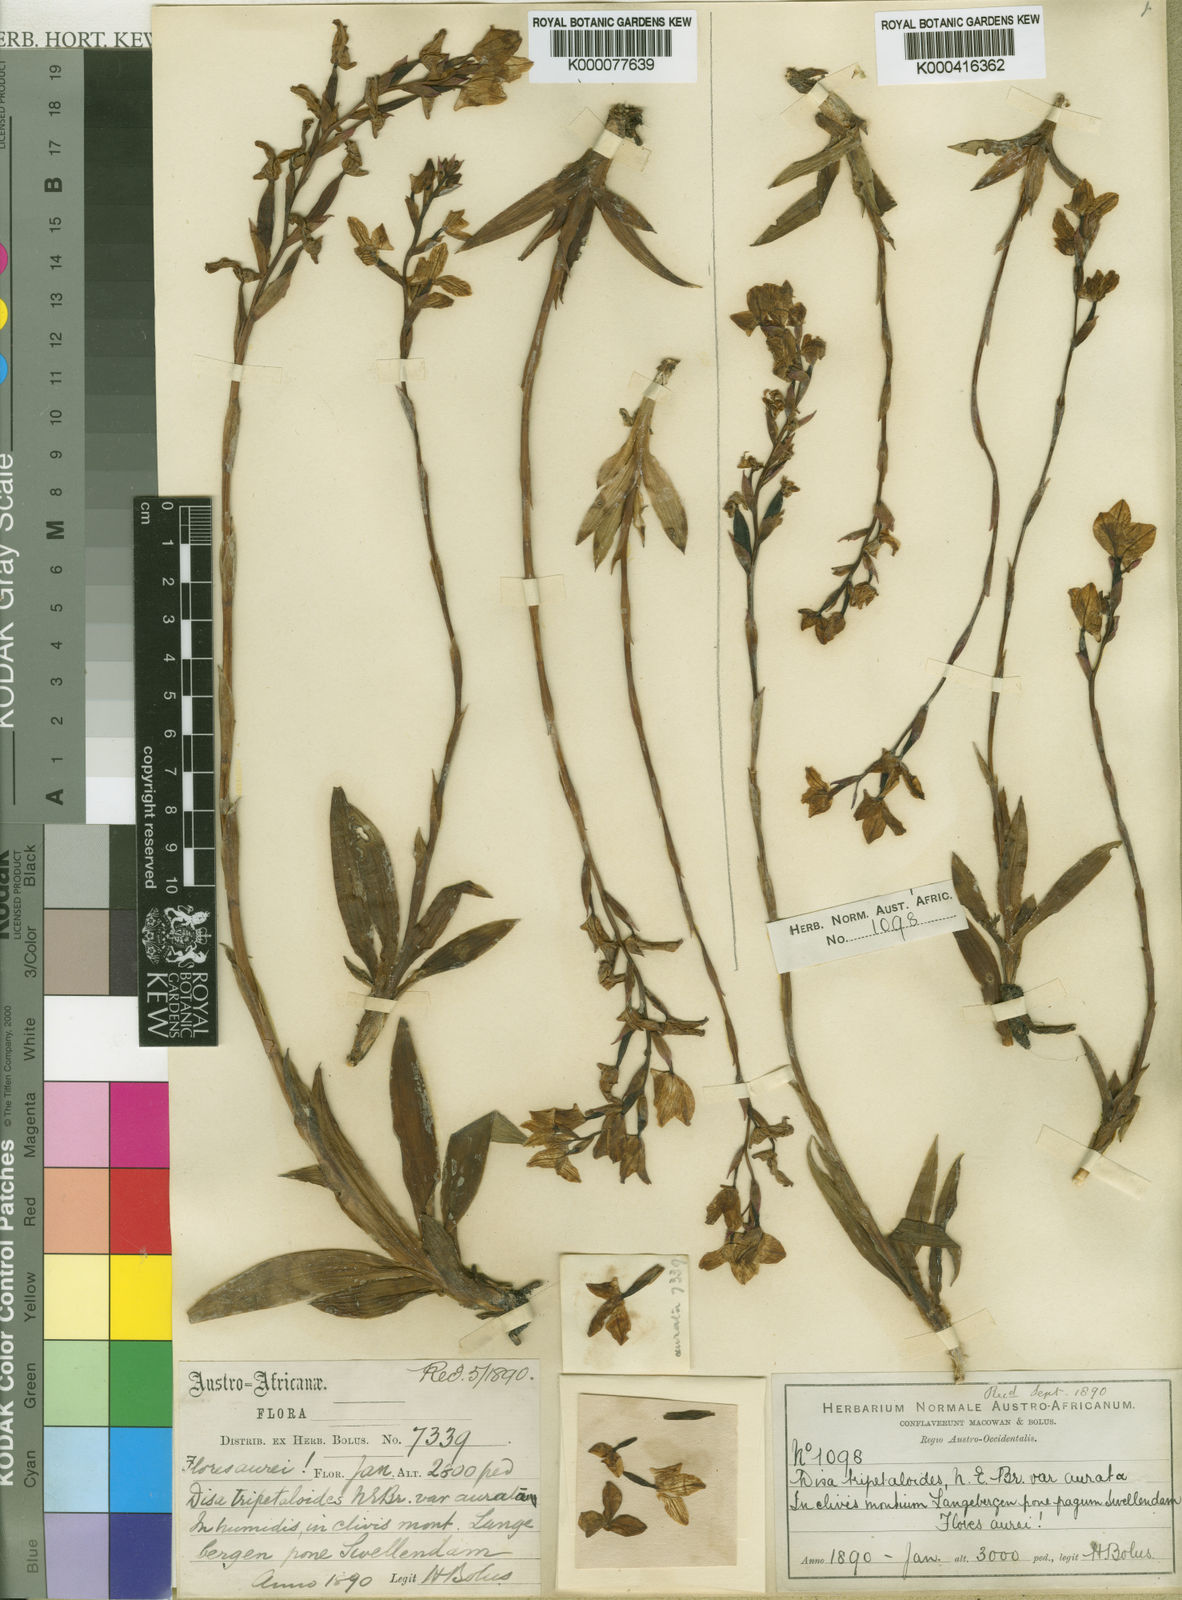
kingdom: Plantae
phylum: Tracheophyta
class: Liliopsida
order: Asparagales
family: Orchidaceae
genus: Disa
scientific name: Disa aurata
